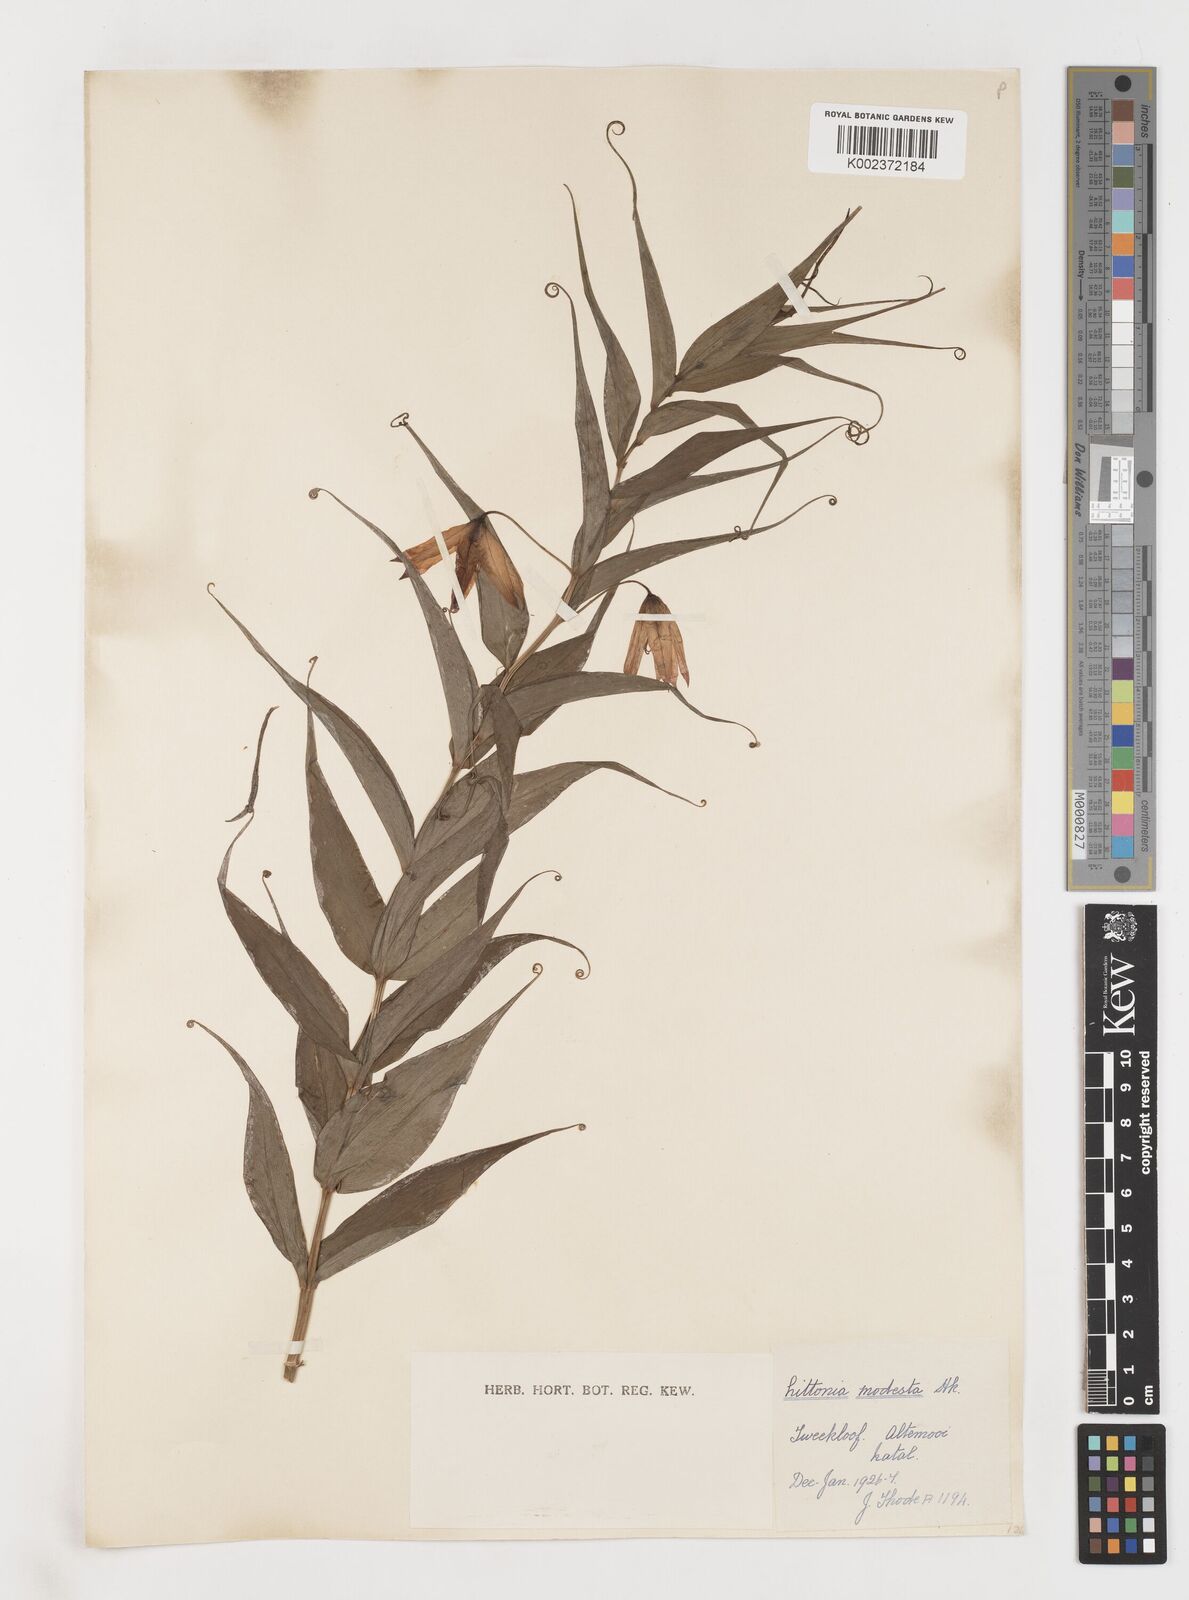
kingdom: Plantae
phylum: Tracheophyta
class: Liliopsida
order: Liliales
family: Colchicaceae
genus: Gloriosa
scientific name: Gloriosa modesta
